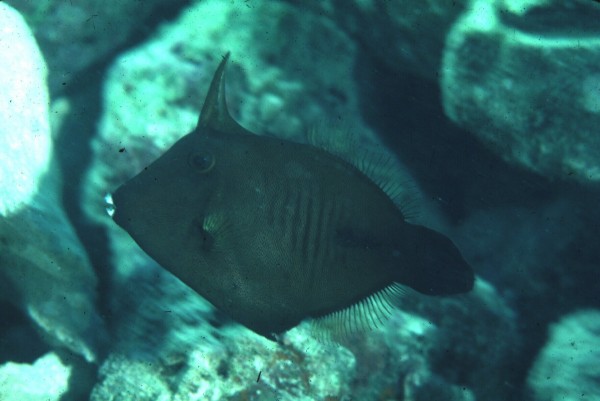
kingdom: Animalia
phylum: Chordata
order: Tetraodontiformes
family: Monacanthidae
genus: Amanses
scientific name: Amanses scopas
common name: Broom filefish
